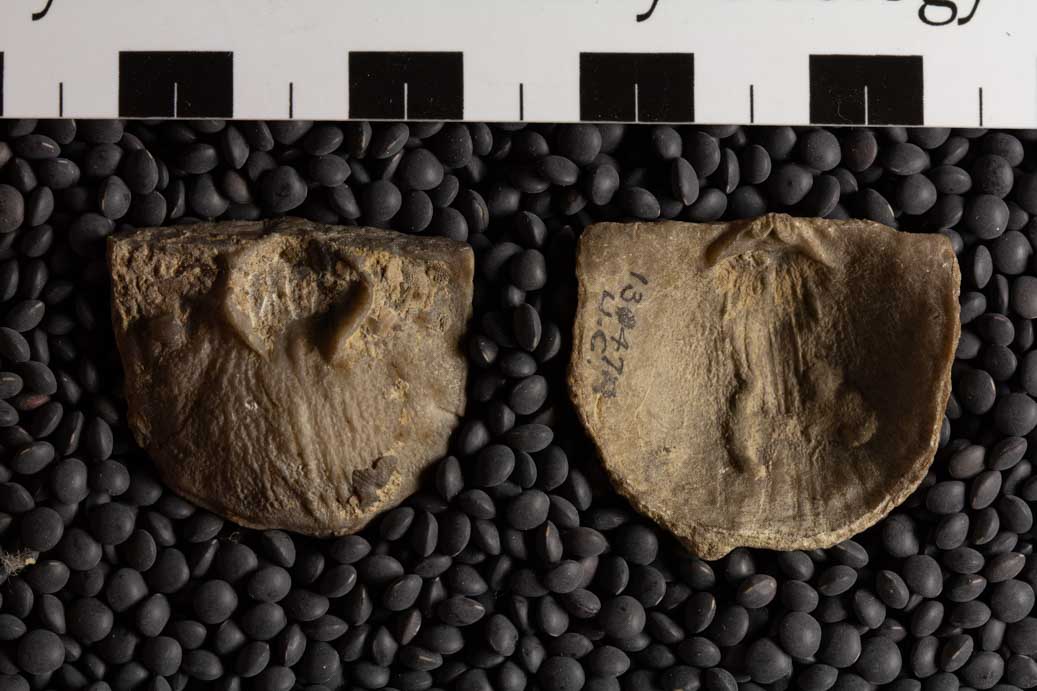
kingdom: Animalia
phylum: Brachiopoda
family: Strophomenidae
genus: Strophomena
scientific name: Strophomena Leptaena filitexta
